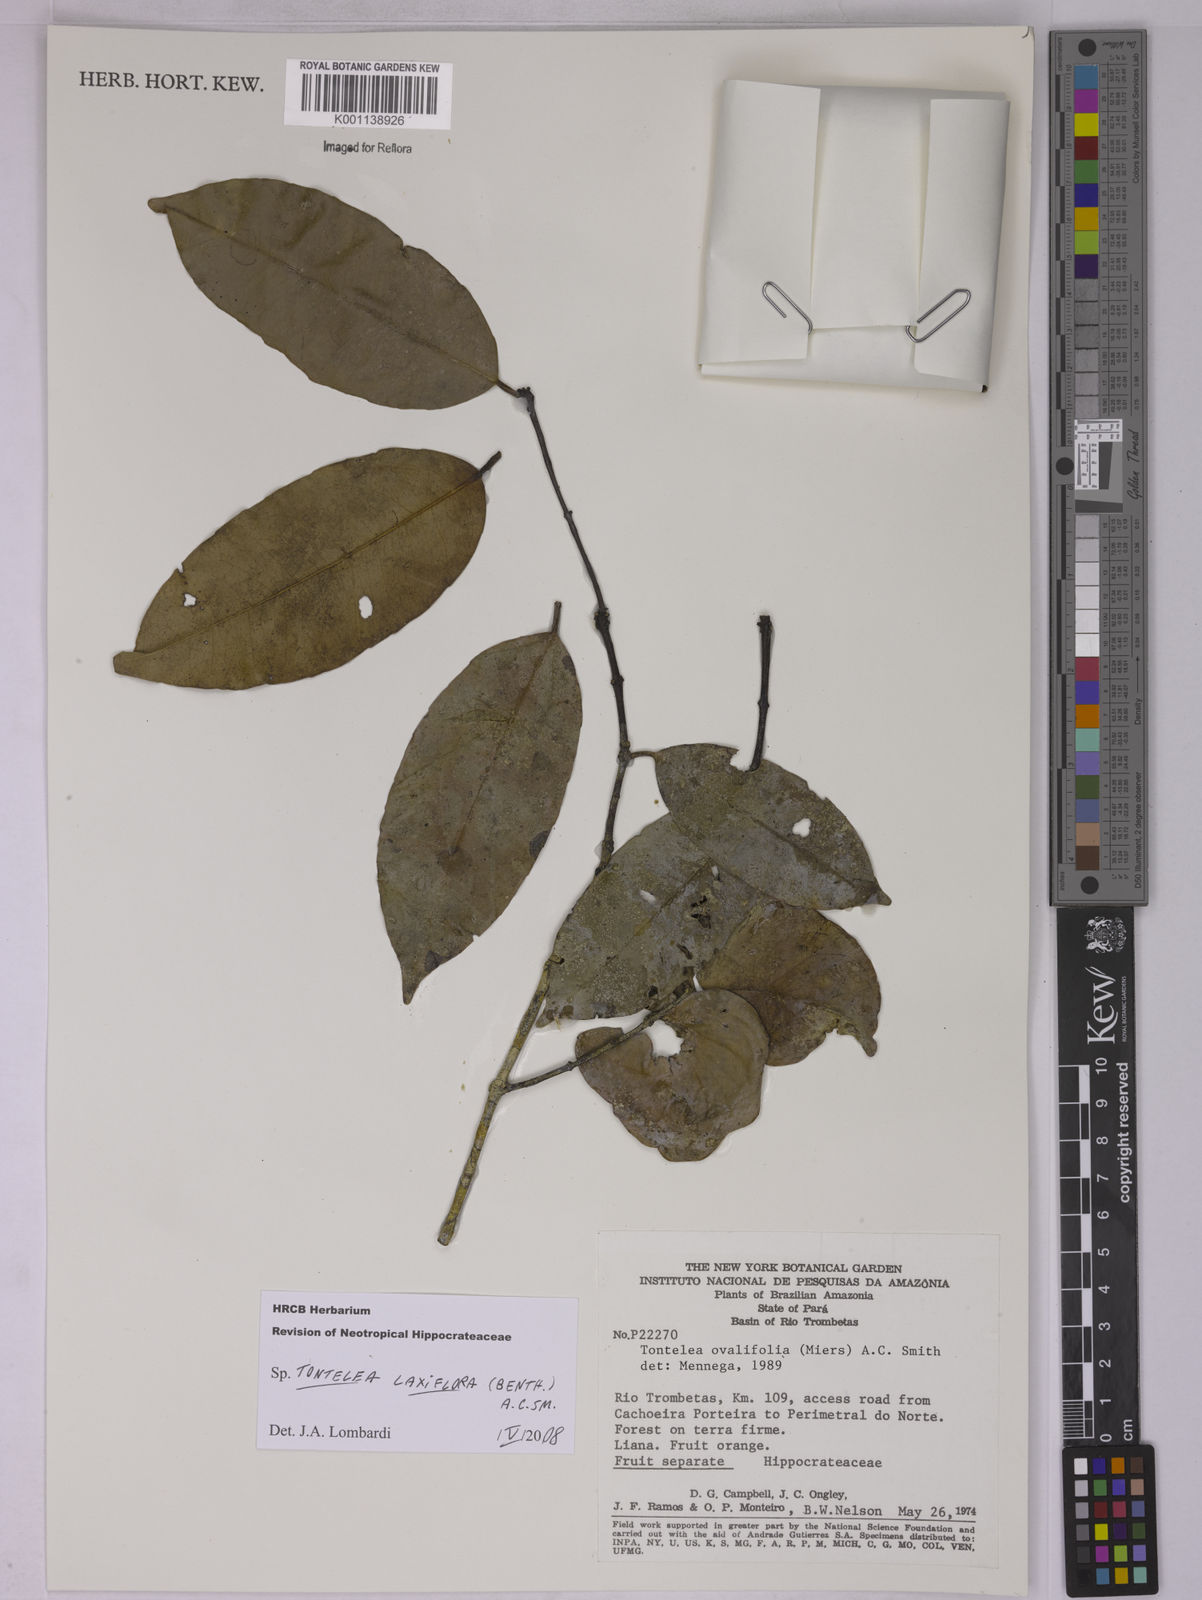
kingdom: Plantae
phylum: Tracheophyta
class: Magnoliopsida
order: Celastrales
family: Celastraceae
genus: Tontelea
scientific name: Tontelea laxiflora
